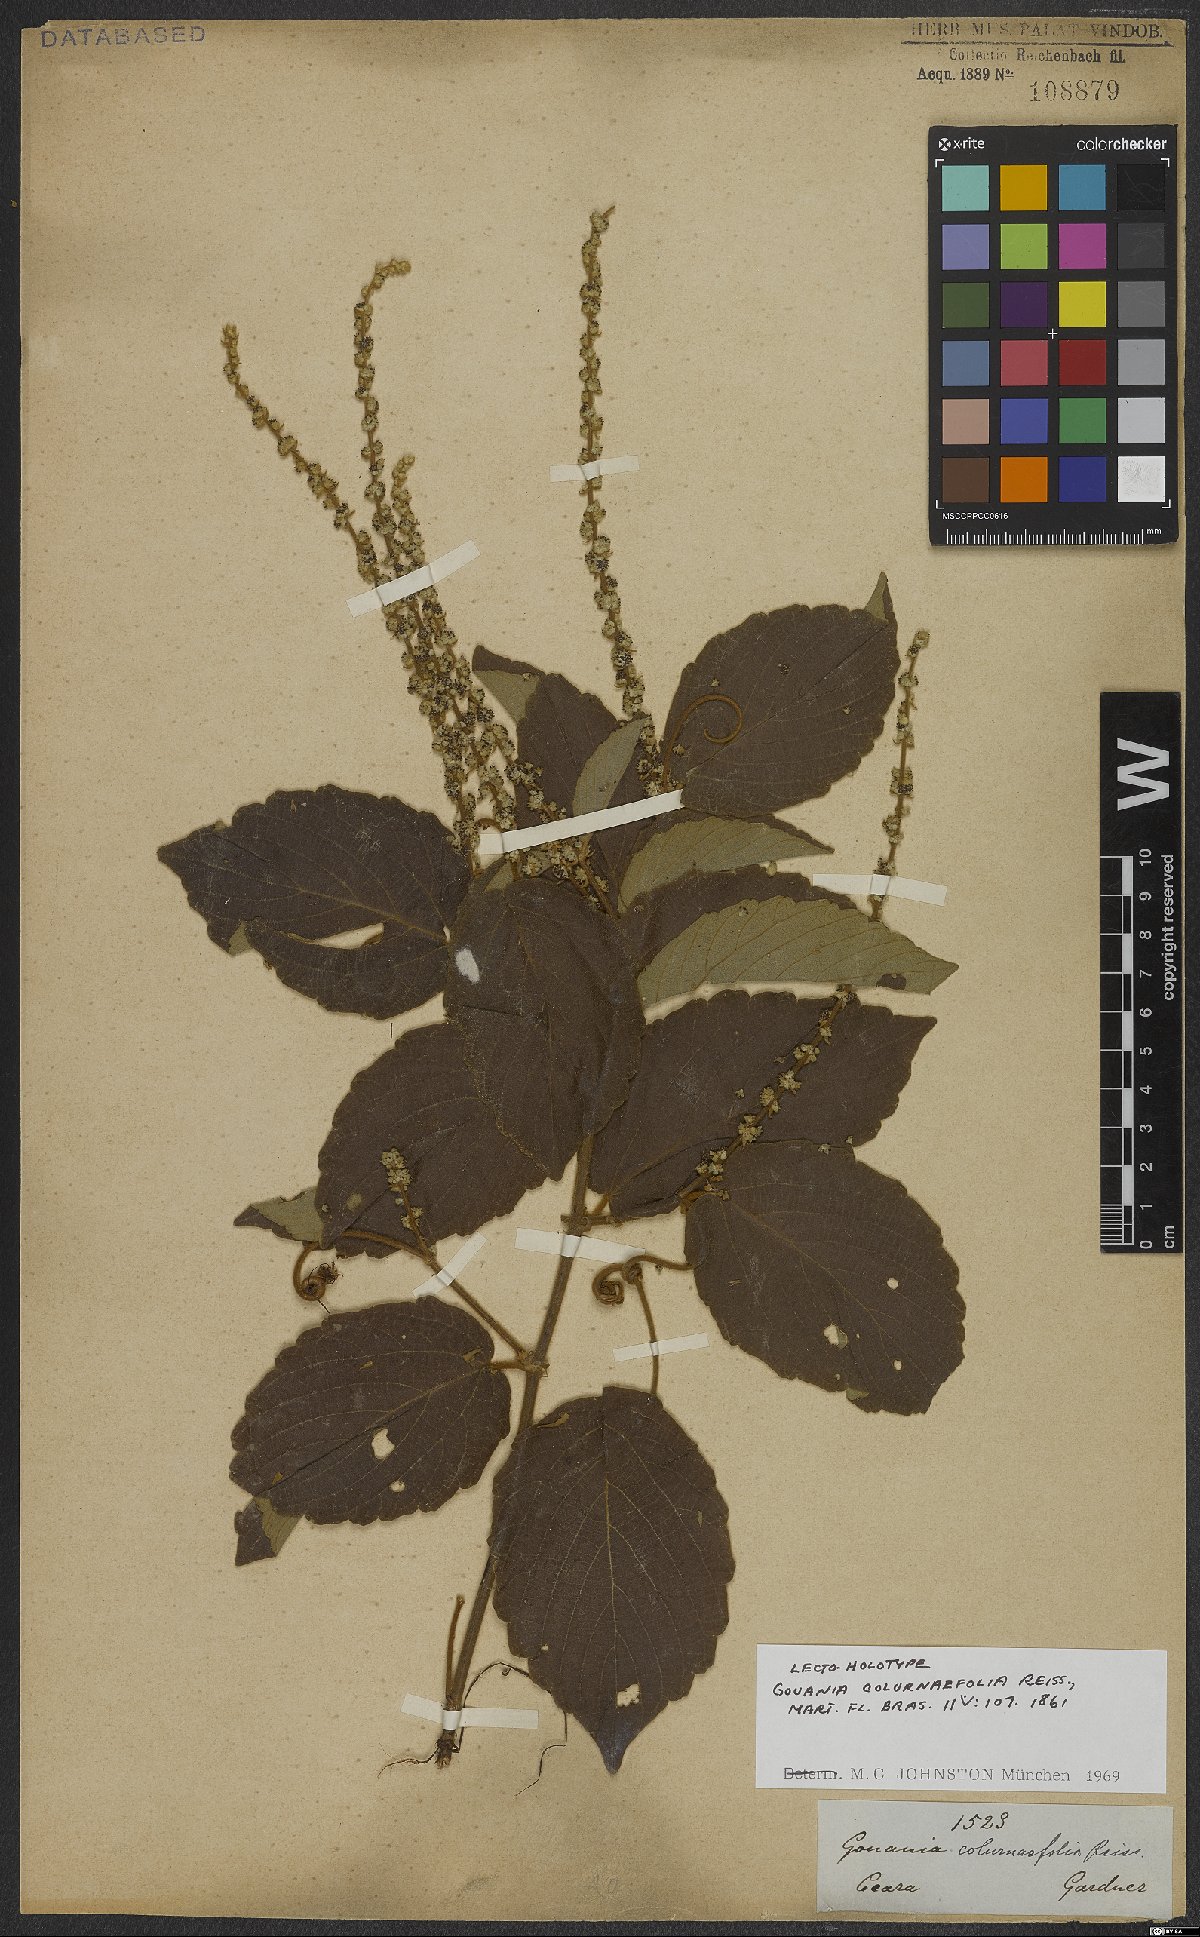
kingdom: Plantae
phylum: Tracheophyta
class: Magnoliopsida
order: Rosales
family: Rhamnaceae
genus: Gouania
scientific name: Gouania velutina
